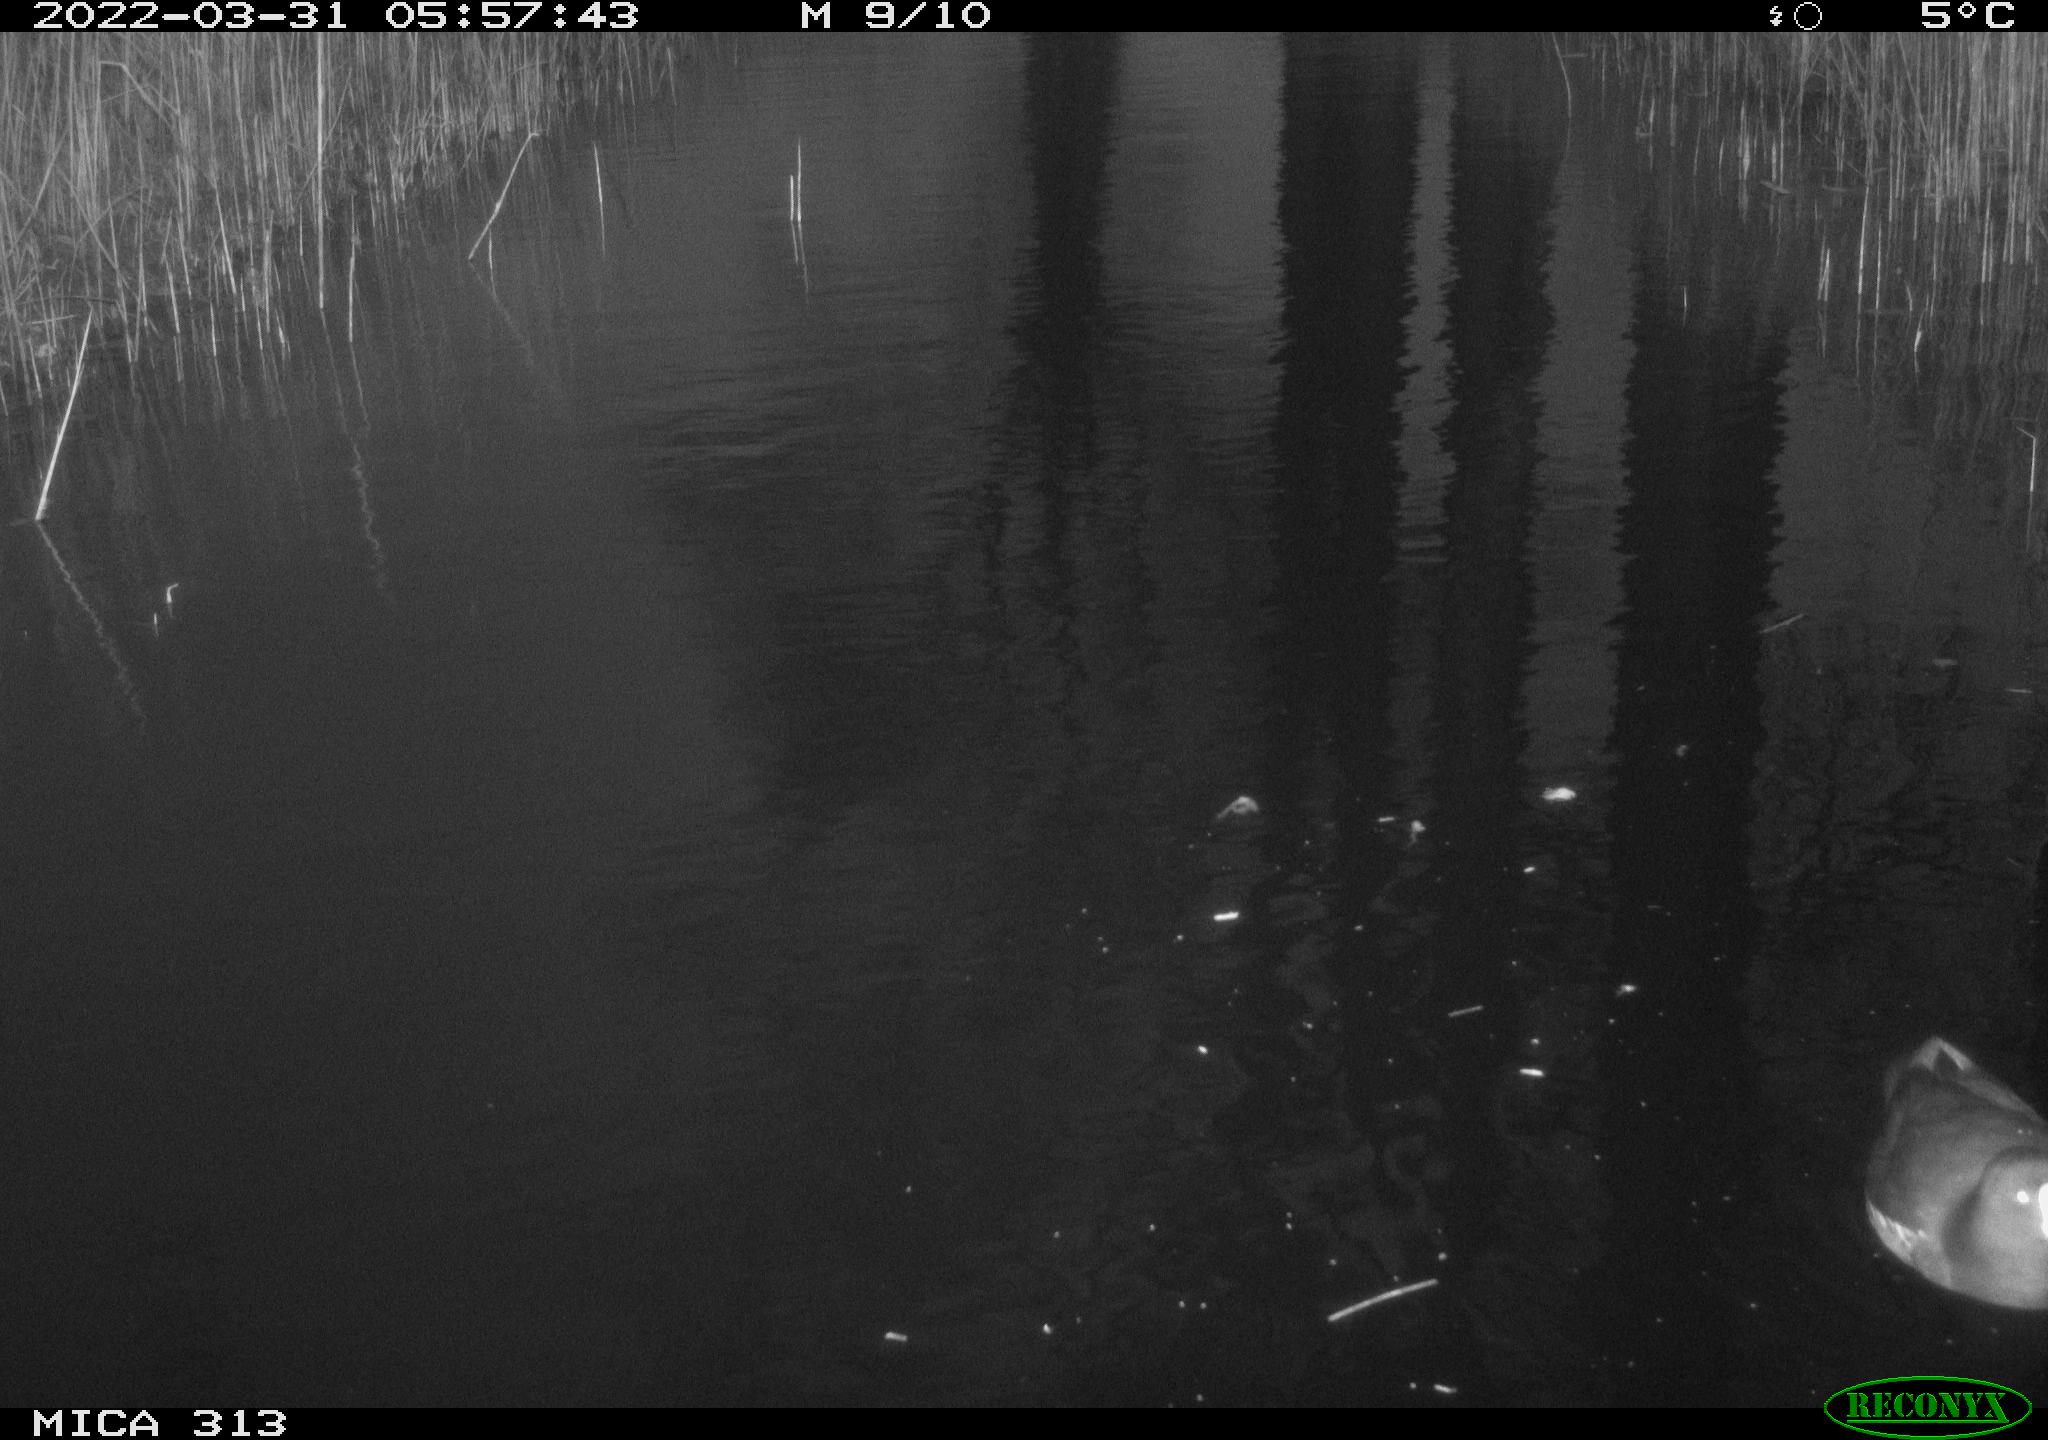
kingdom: Animalia
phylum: Chordata
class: Aves
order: Gruiformes
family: Rallidae
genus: Gallinula
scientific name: Gallinula chloropus
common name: Common moorhen
